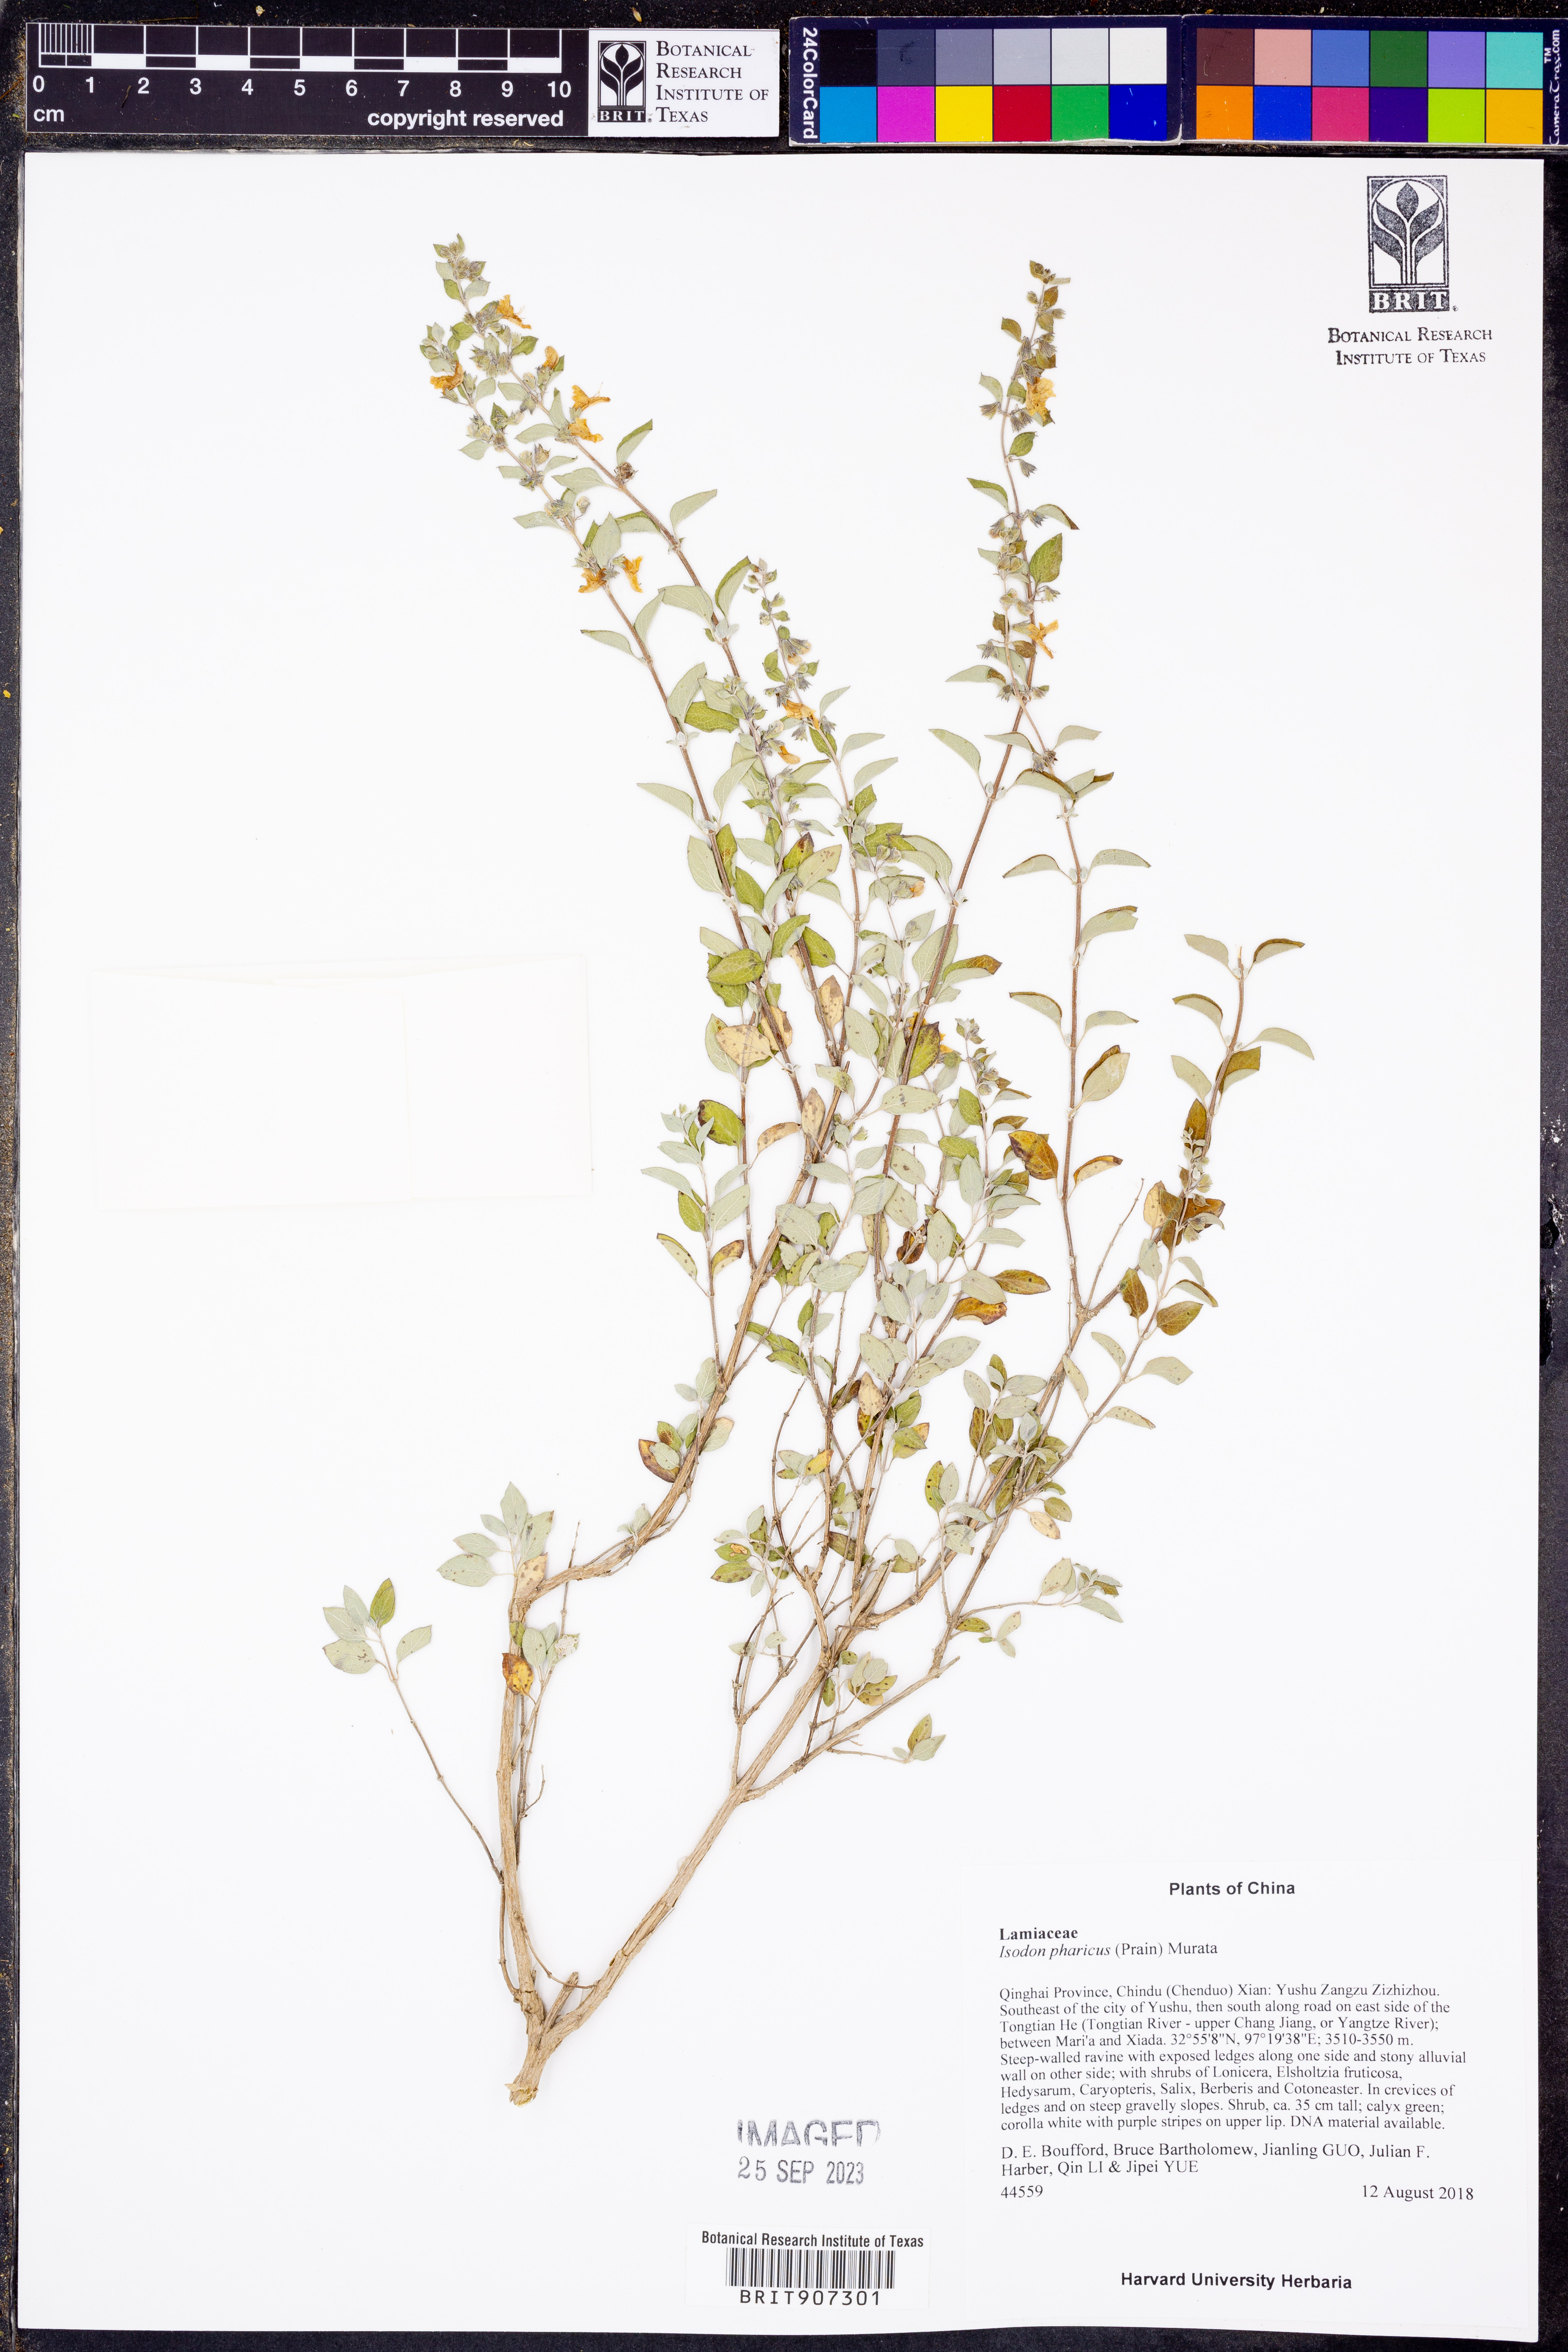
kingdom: Plantae
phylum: Tracheophyta
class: Magnoliopsida
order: Lamiales
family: Lamiaceae
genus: Isodon
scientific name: Isodon pharicus
